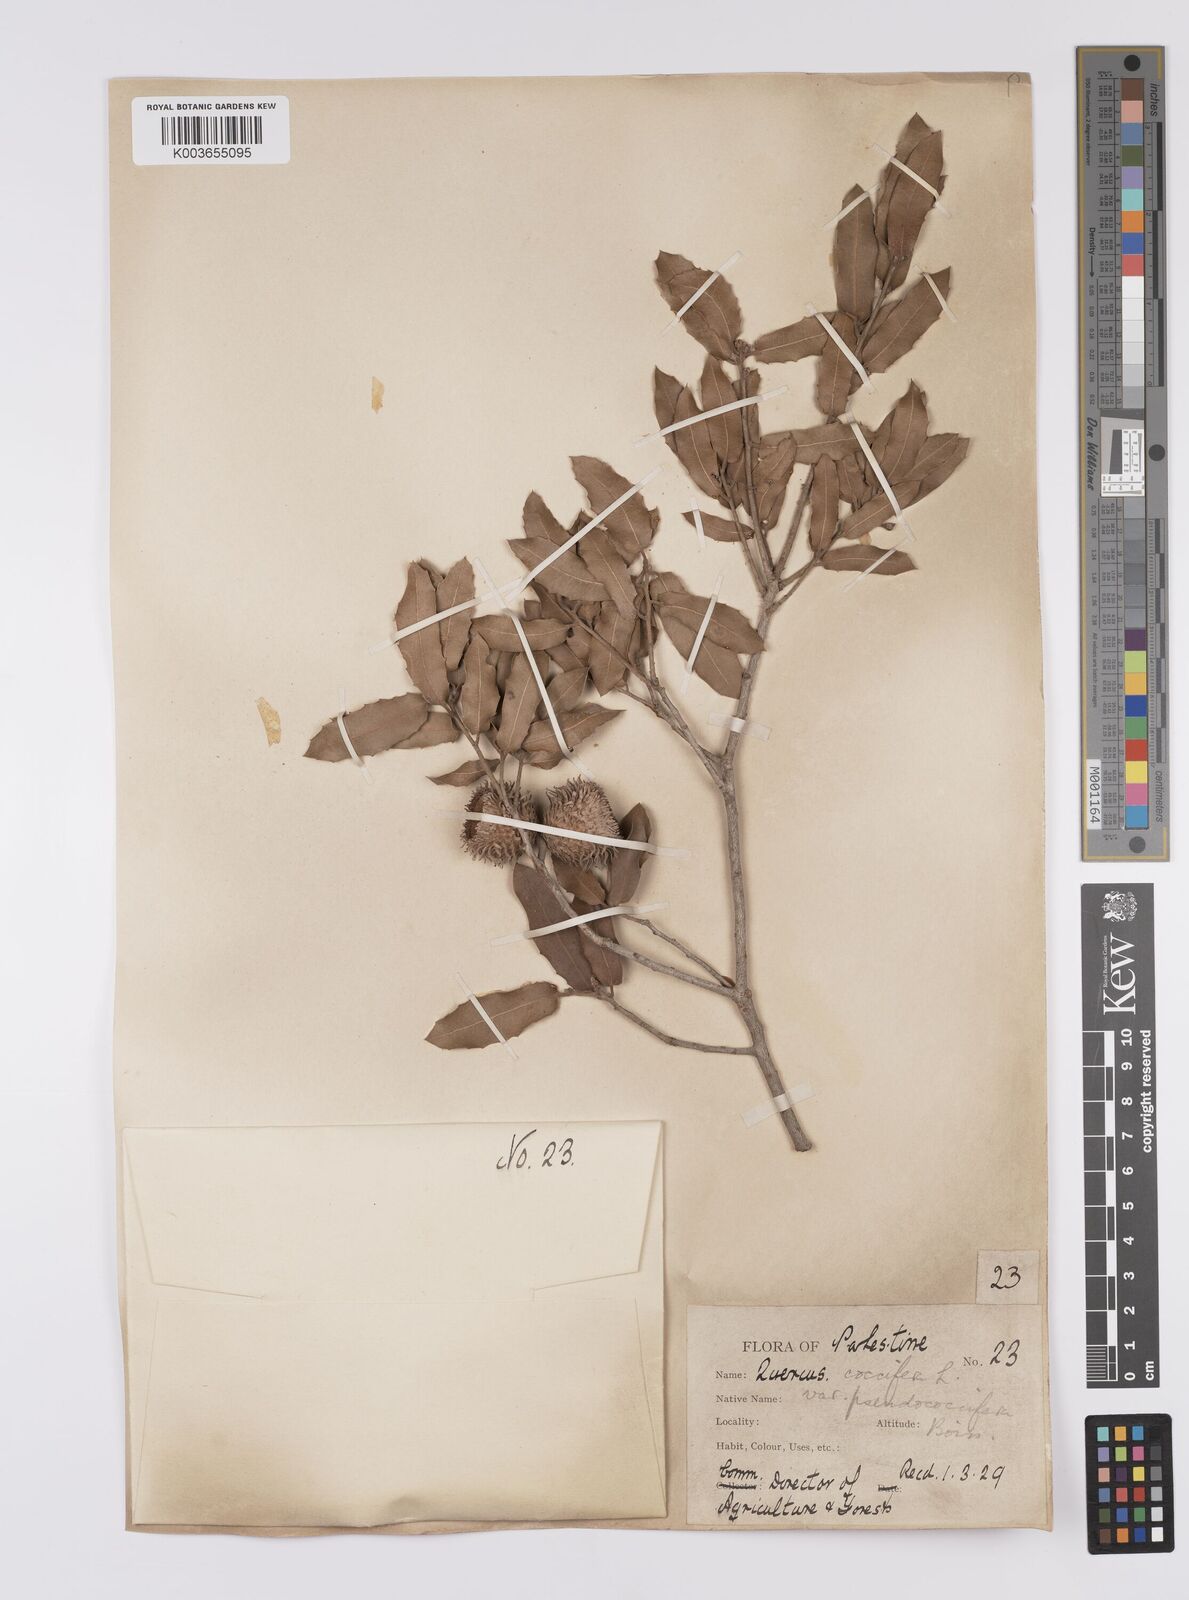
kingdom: Plantae
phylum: Tracheophyta
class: Magnoliopsida
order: Fagales
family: Fagaceae
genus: Quercus
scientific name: Quercus coccifera
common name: Kermes oak
